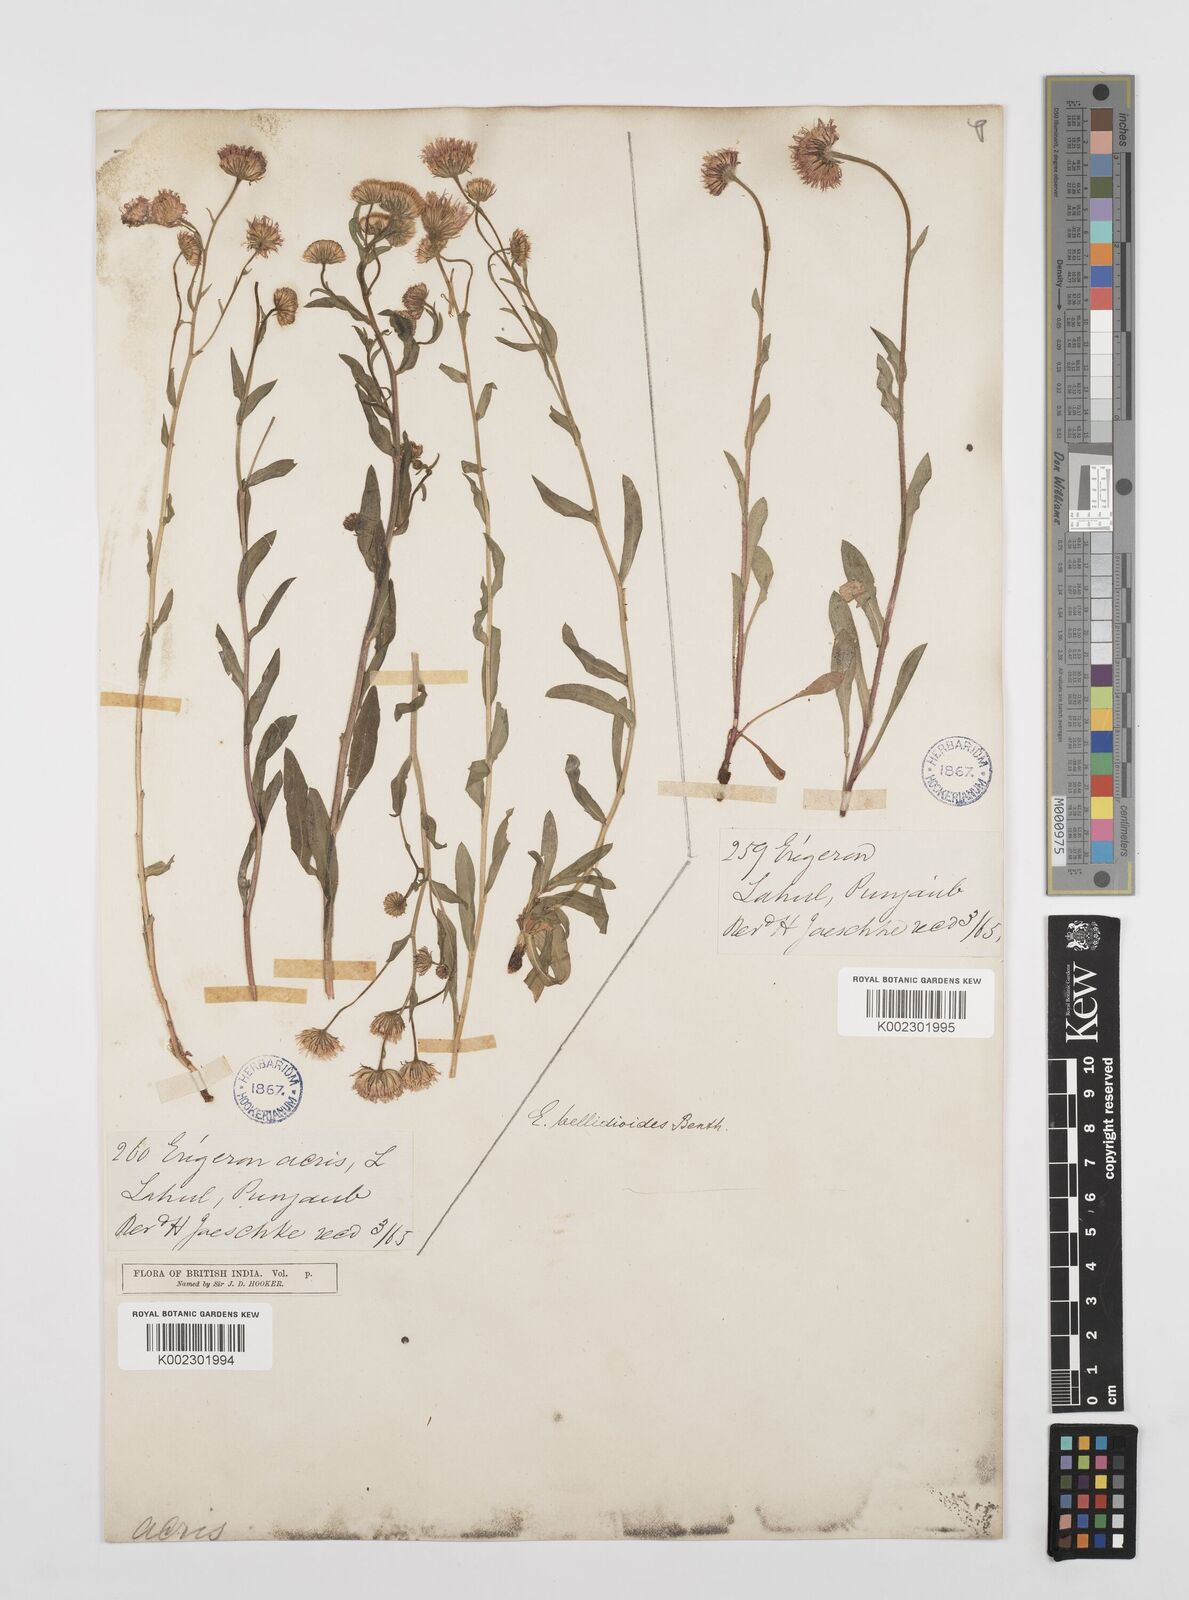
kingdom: Plantae
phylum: Tracheophyta
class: Magnoliopsida
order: Asterales
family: Asteraceae
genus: Erigeron
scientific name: Erigeron alpinus
